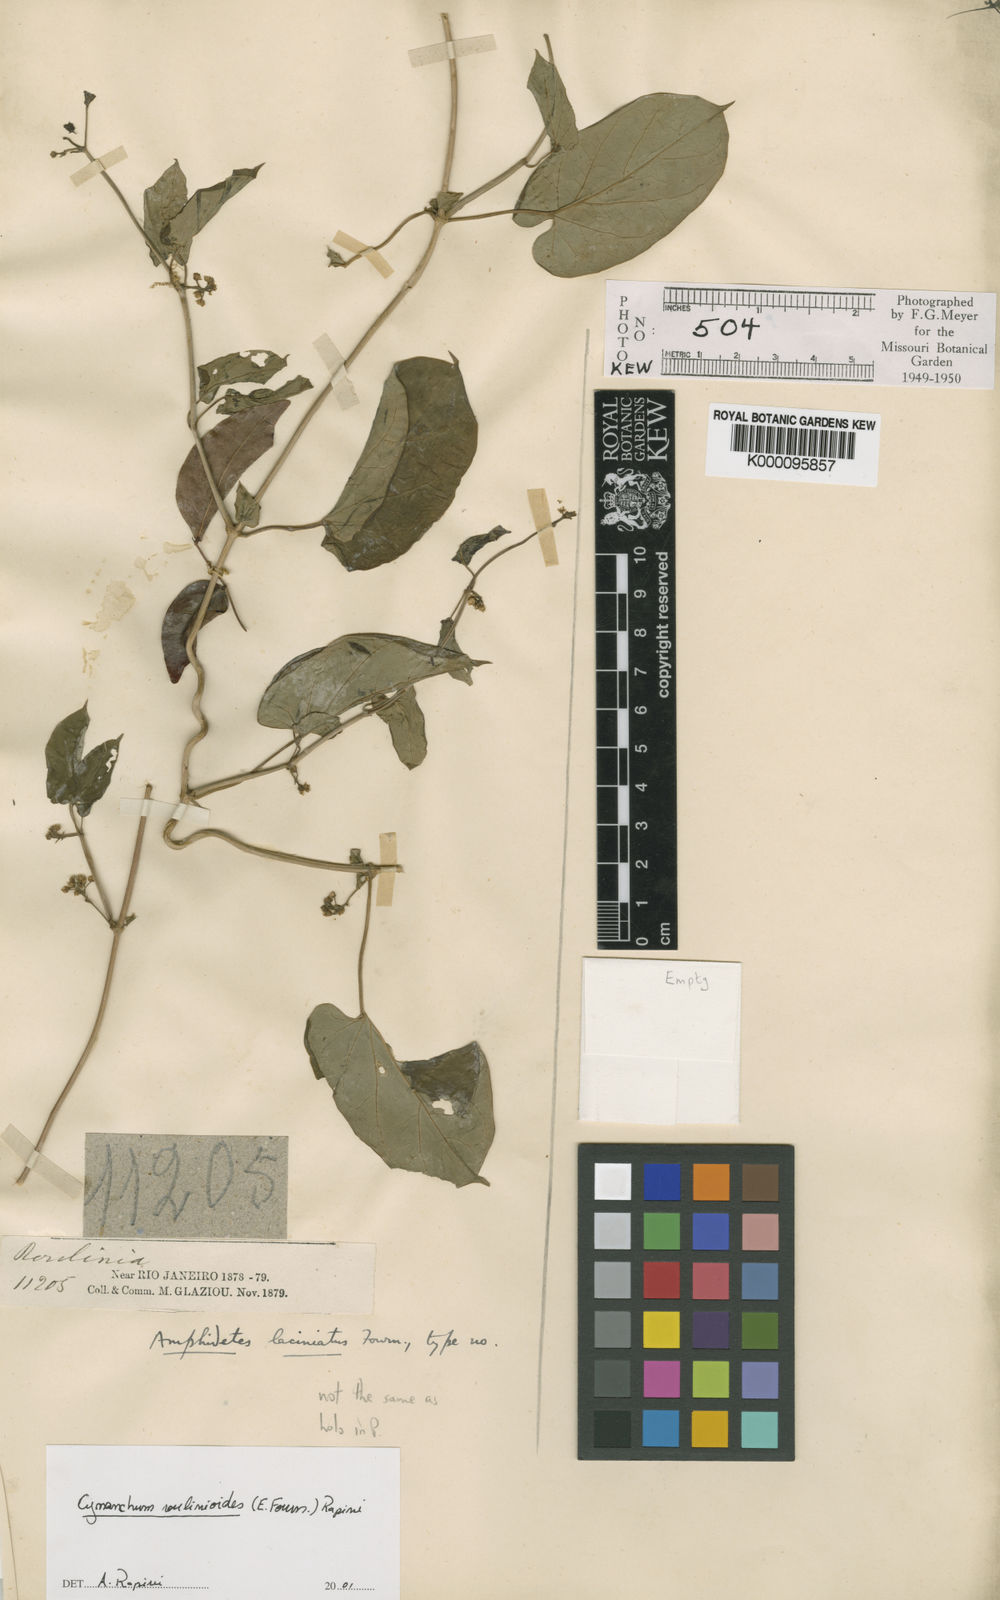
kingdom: Plantae
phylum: Tracheophyta
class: Magnoliopsida
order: Gentianales
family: Apocynaceae
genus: Cynanchum
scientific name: Cynanchum roulinioides
